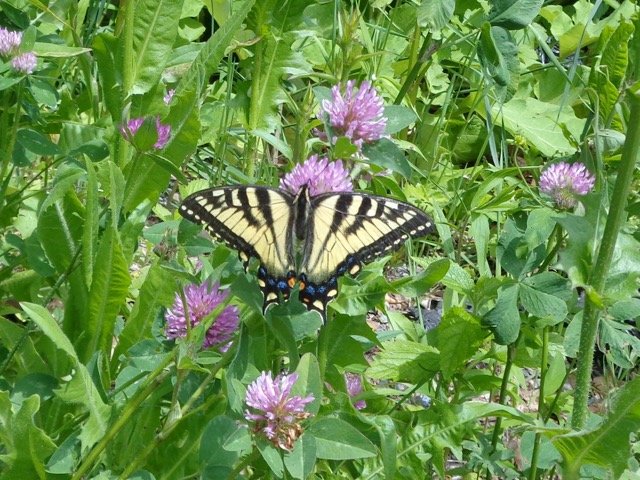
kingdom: Animalia
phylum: Arthropoda
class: Insecta
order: Lepidoptera
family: Papilionidae
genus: Pterourus
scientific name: Pterourus canadensis
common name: Canadian Tiger Swallowtail
